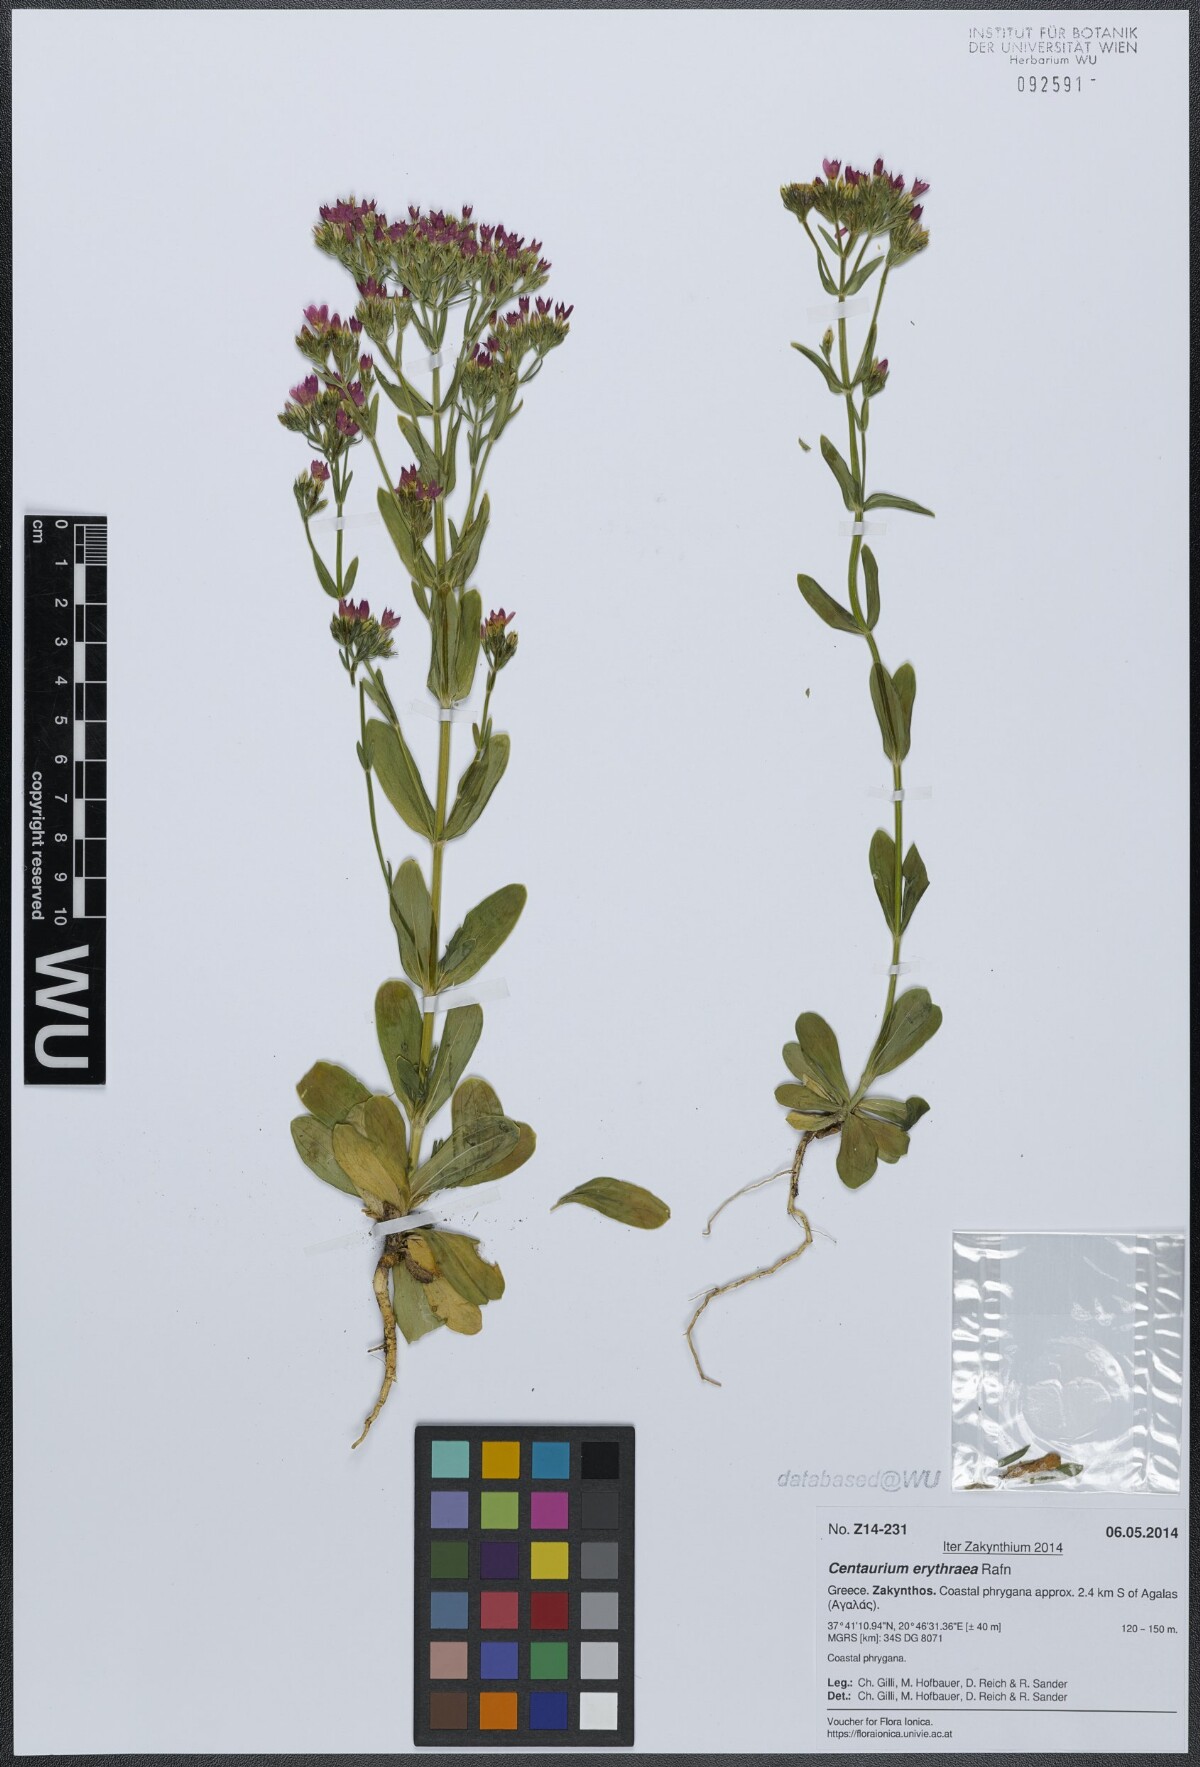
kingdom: Plantae
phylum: Tracheophyta
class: Magnoliopsida
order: Gentianales
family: Gentianaceae
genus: Centaurium
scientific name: Centaurium erythraea
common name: Common centaury
